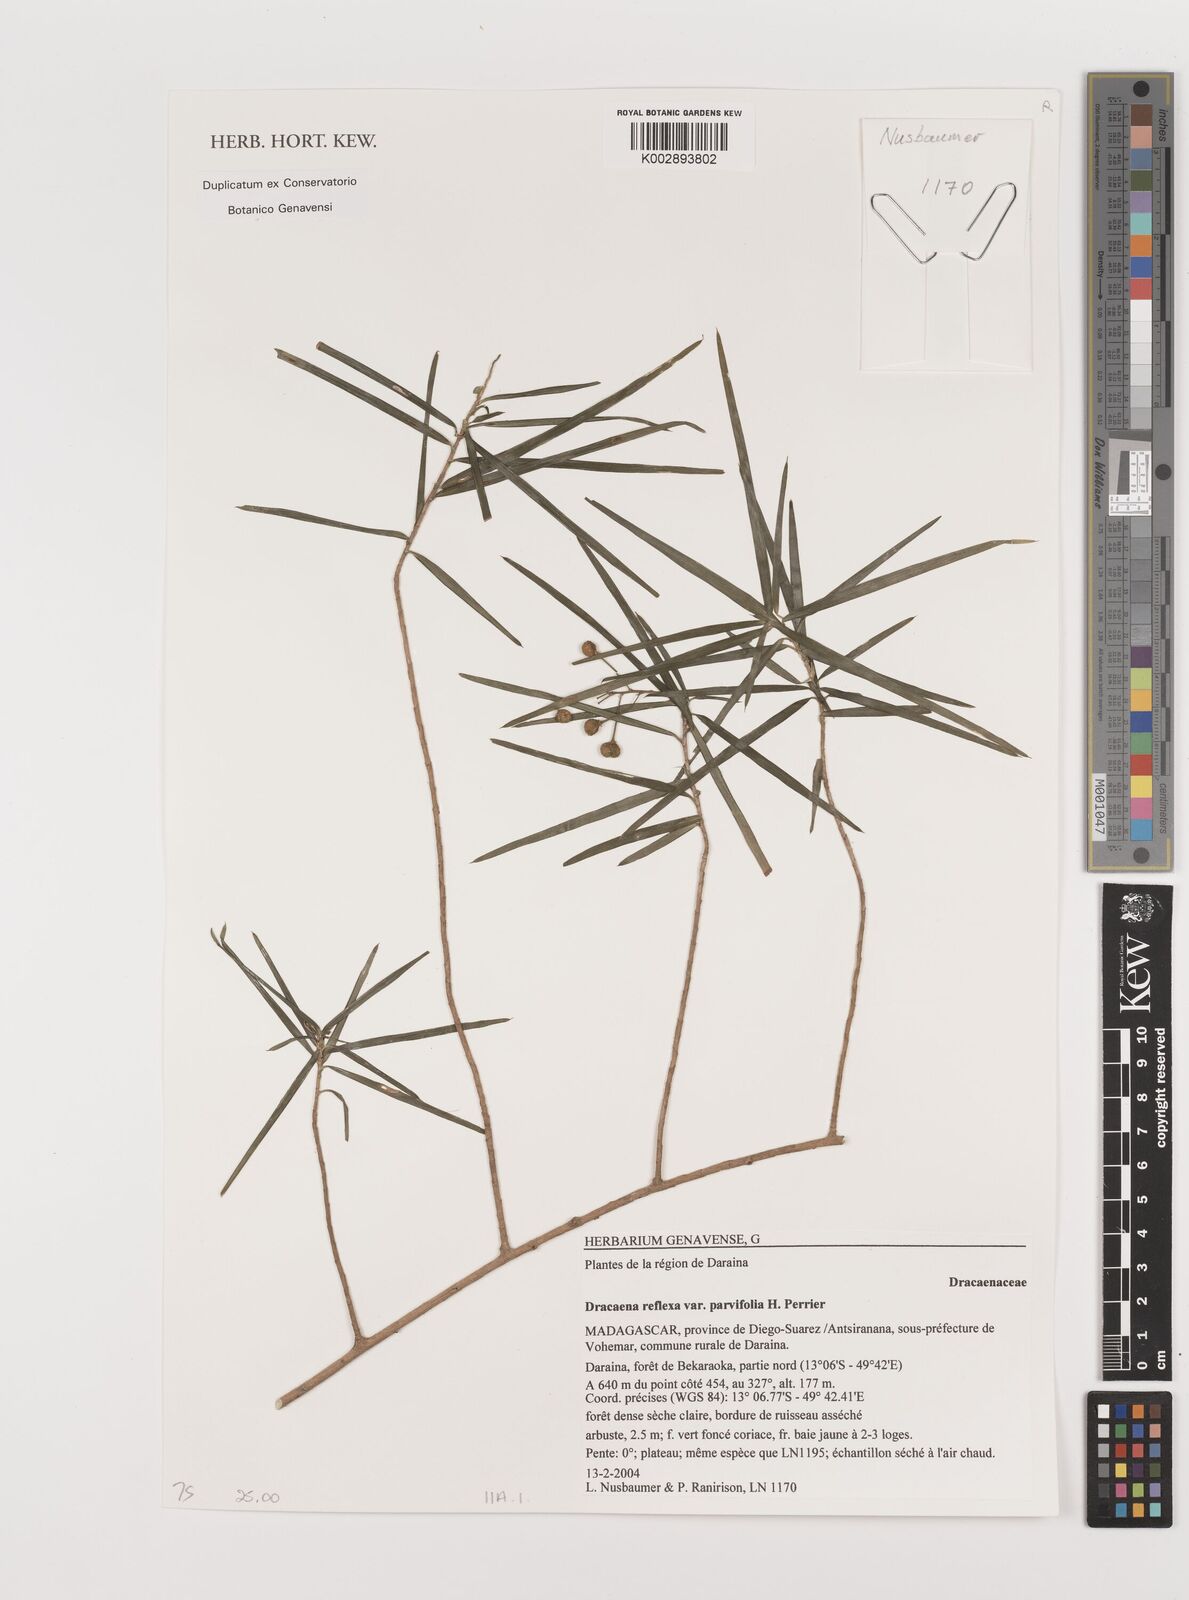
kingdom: Plantae
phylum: Tracheophyta
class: Liliopsida
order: Asparagales
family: Asparagaceae
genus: Dracaena
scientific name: Dracaena reflexa
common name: Song-of-india
